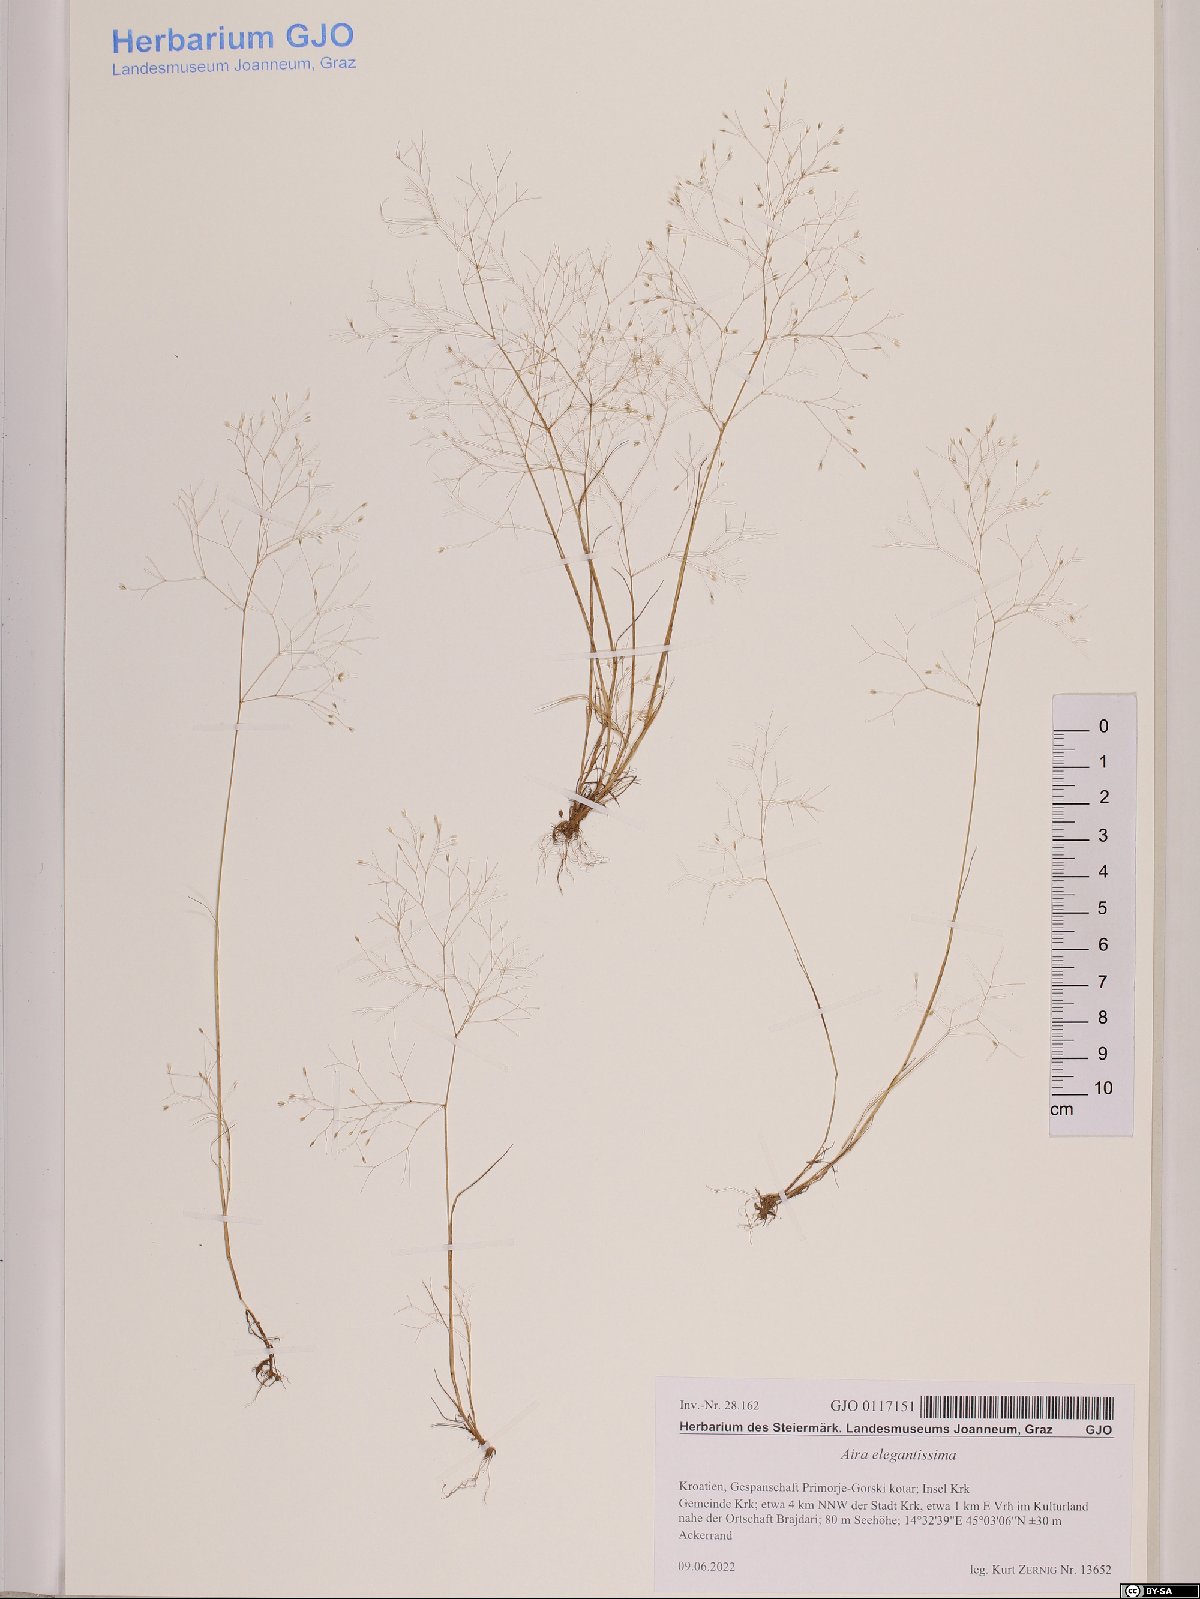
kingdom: Plantae
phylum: Tracheophyta
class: Liliopsida
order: Poales
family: Poaceae
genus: Aira
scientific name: Aira elegans
